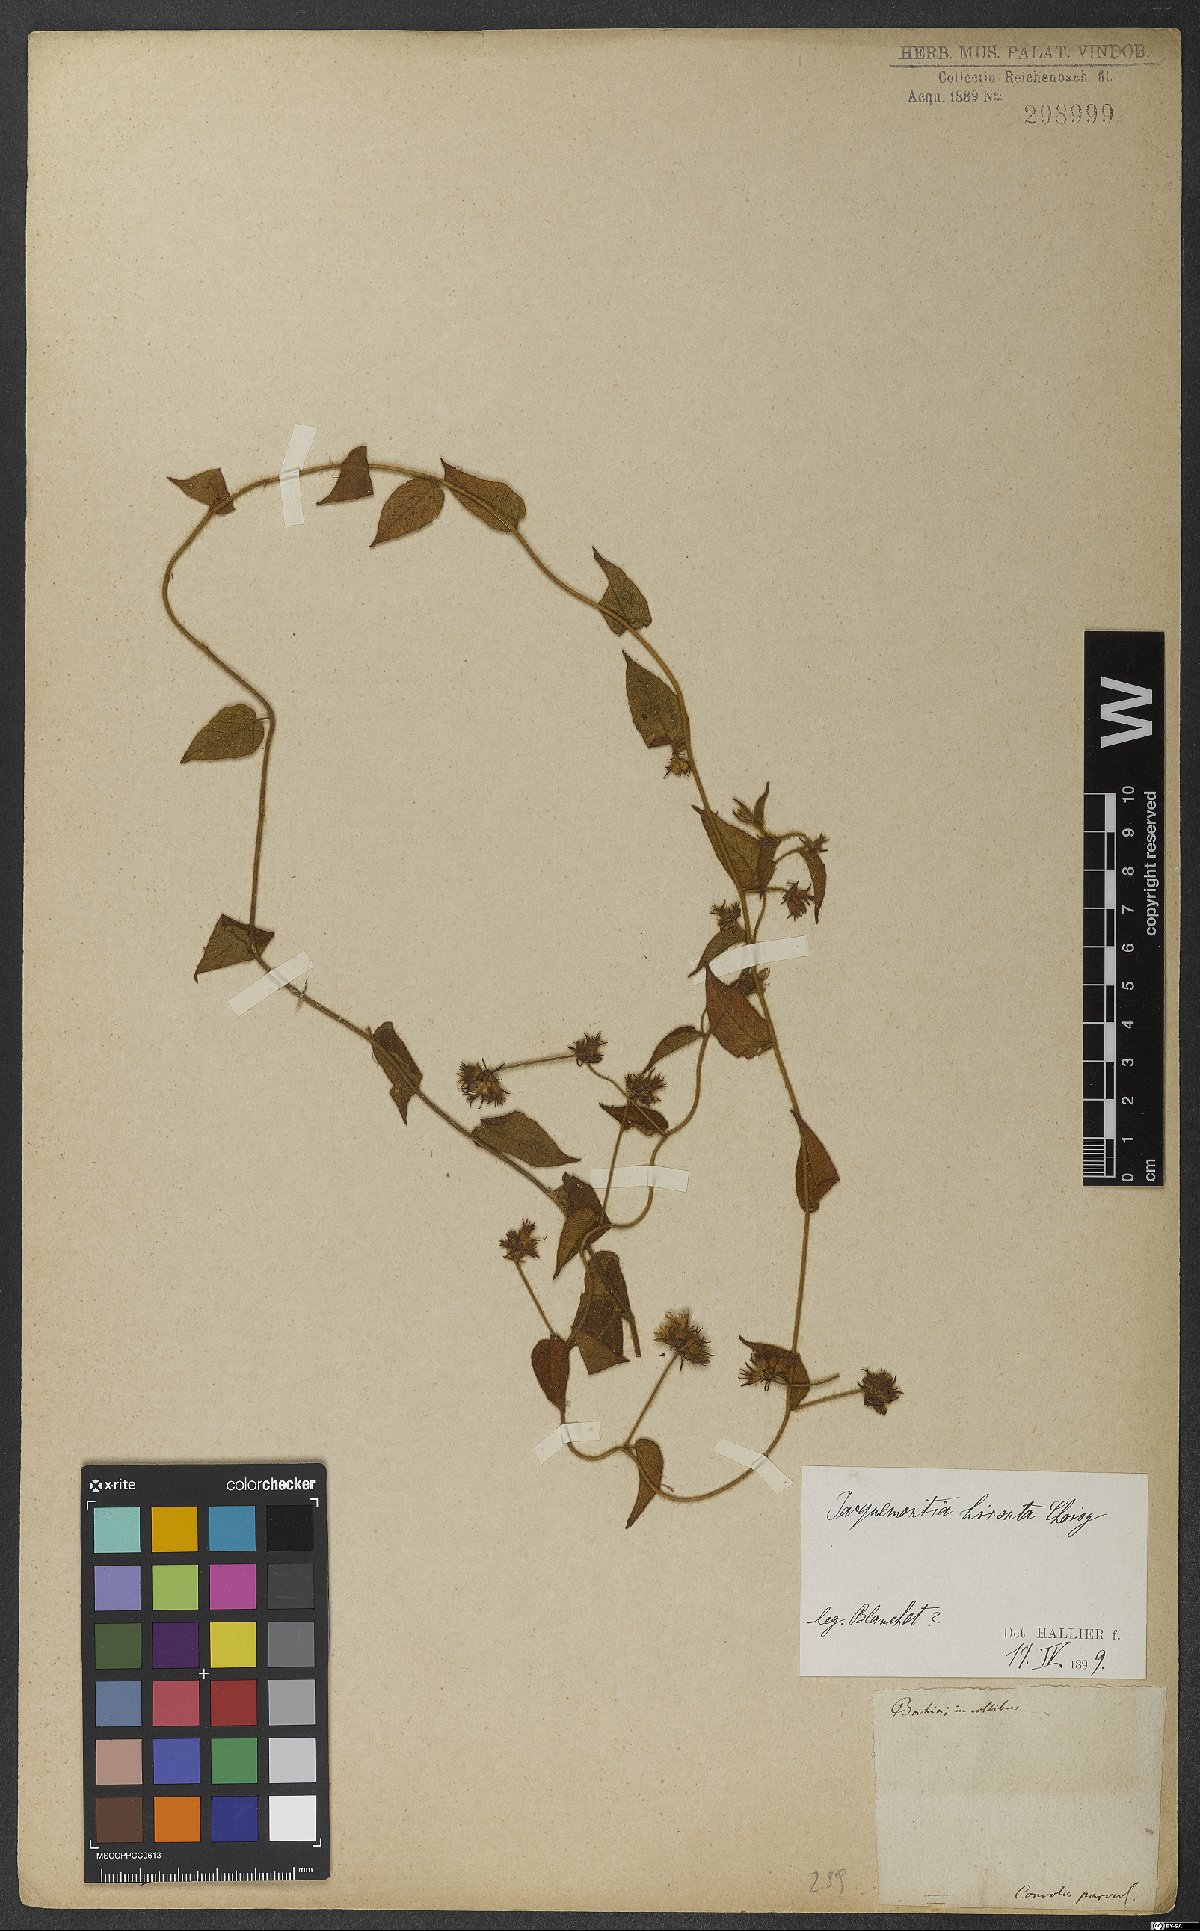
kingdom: Plantae
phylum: Tracheophyta
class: Magnoliopsida
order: Solanales
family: Convolvulaceae
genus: Jacquemontia
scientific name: Jacquemontia sphaerostigma
